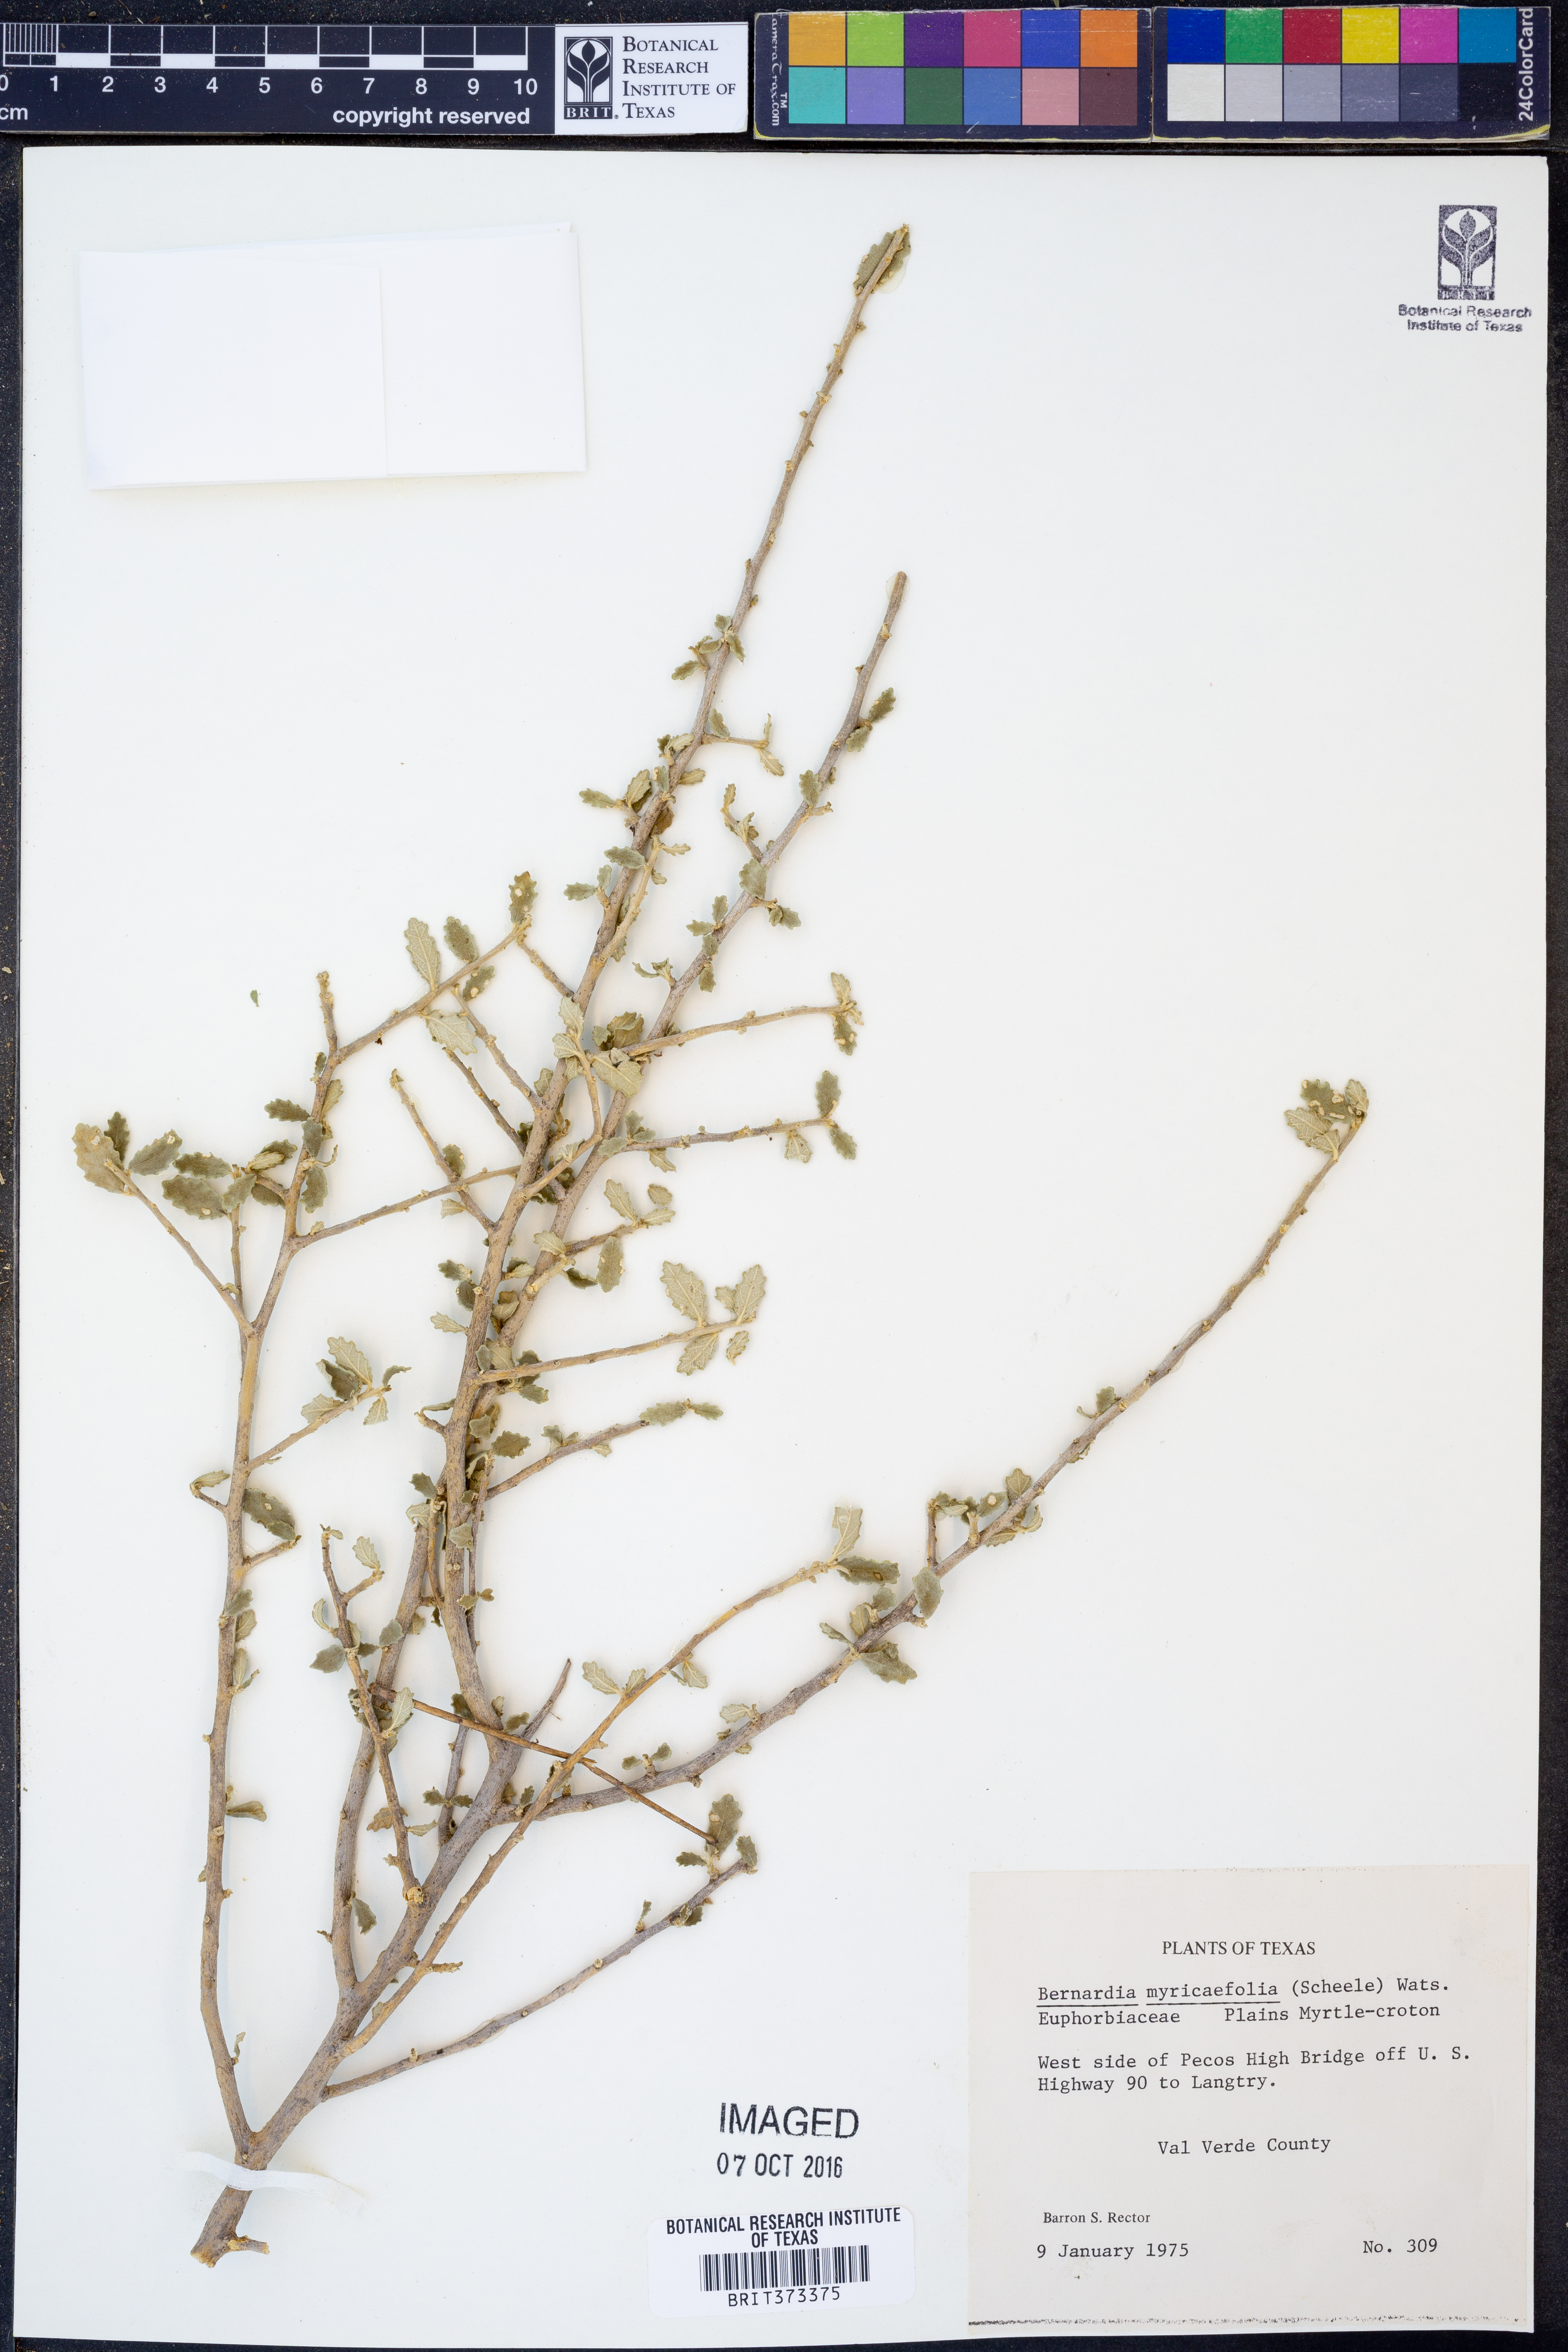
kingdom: Plantae
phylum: Tracheophyta
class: Magnoliopsida
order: Malpighiales
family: Euphorbiaceae
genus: Bernardia
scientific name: Bernardia myricifolia
